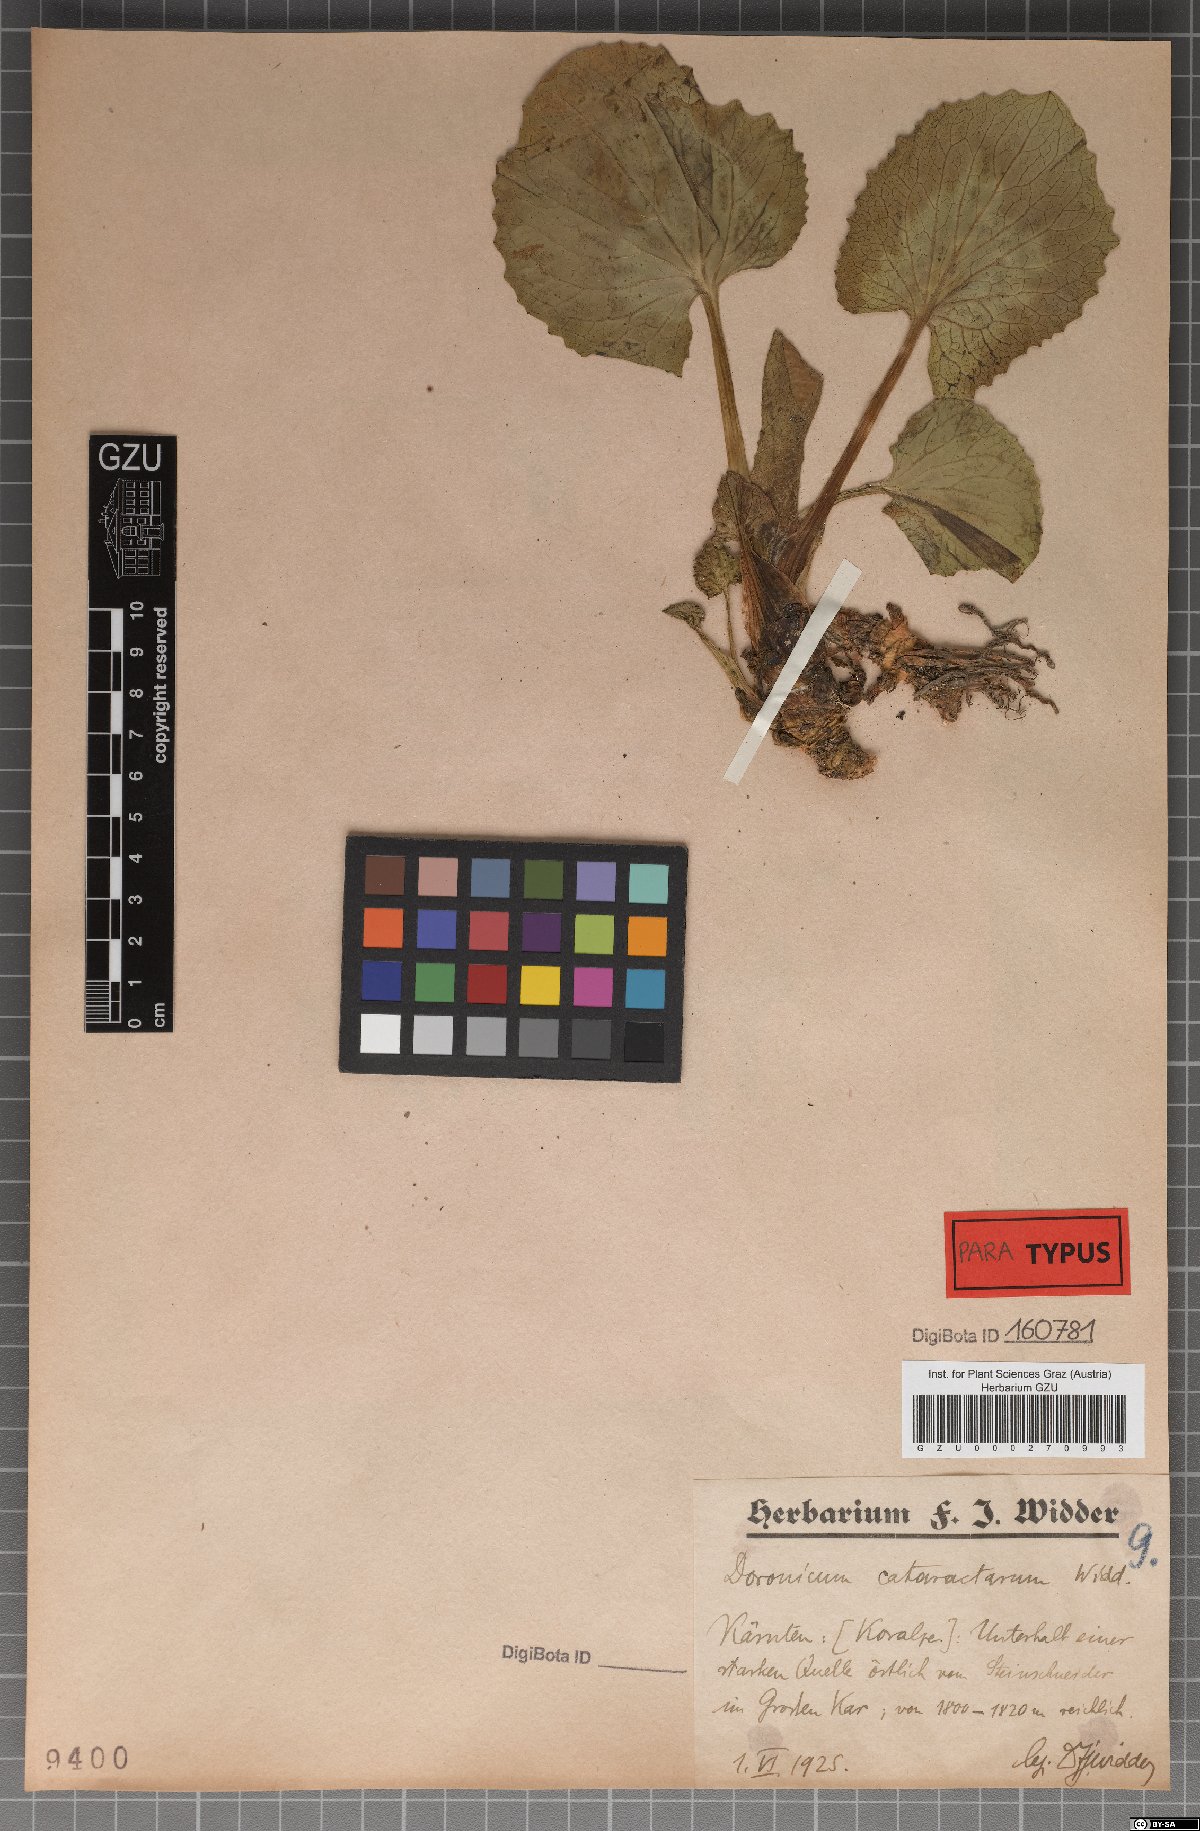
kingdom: Plantae
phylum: Tracheophyta
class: Magnoliopsida
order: Asterales
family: Asteraceae
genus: Doronicum
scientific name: Doronicum cataractarum
